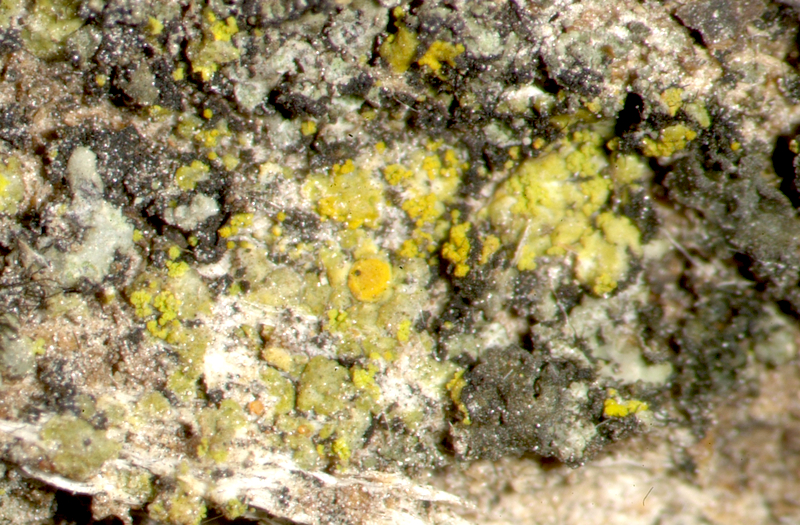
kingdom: Fungi
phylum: Ascomycota
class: Lecanoromycetes
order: Teloschistales
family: Teloschistaceae
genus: Flavoplaca
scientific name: Flavoplaca citrina
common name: Mealy firedot lichen
